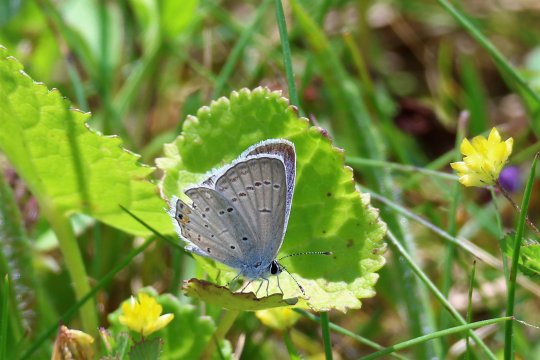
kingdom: Animalia
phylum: Arthropoda
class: Insecta
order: Lepidoptera
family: Lycaenidae
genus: Elkalyce
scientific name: Elkalyce comyntas
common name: Eastern Tailed-Blue
